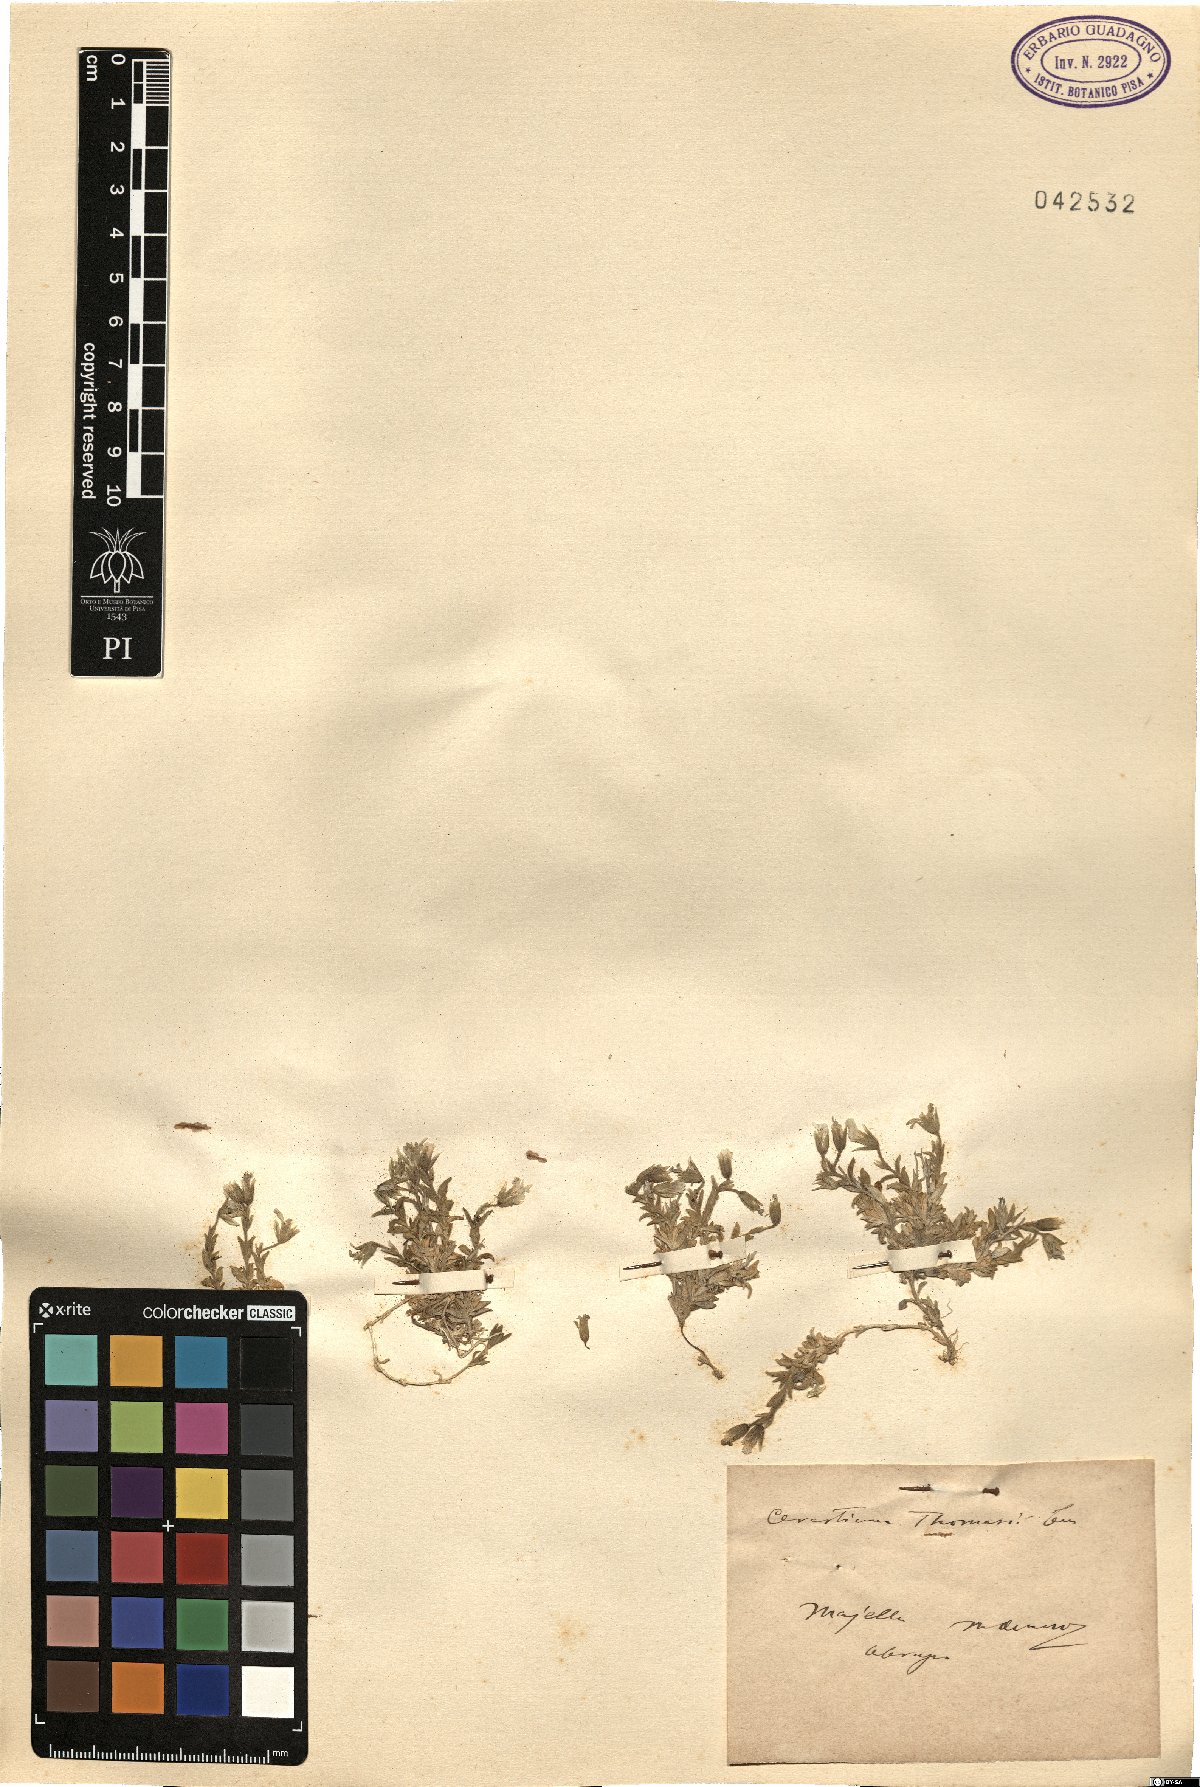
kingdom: Plantae
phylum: Tracheophyta
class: Magnoliopsida
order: Caryophyllales
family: Caryophyllaceae
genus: Cerastium
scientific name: Cerastium thomasii
